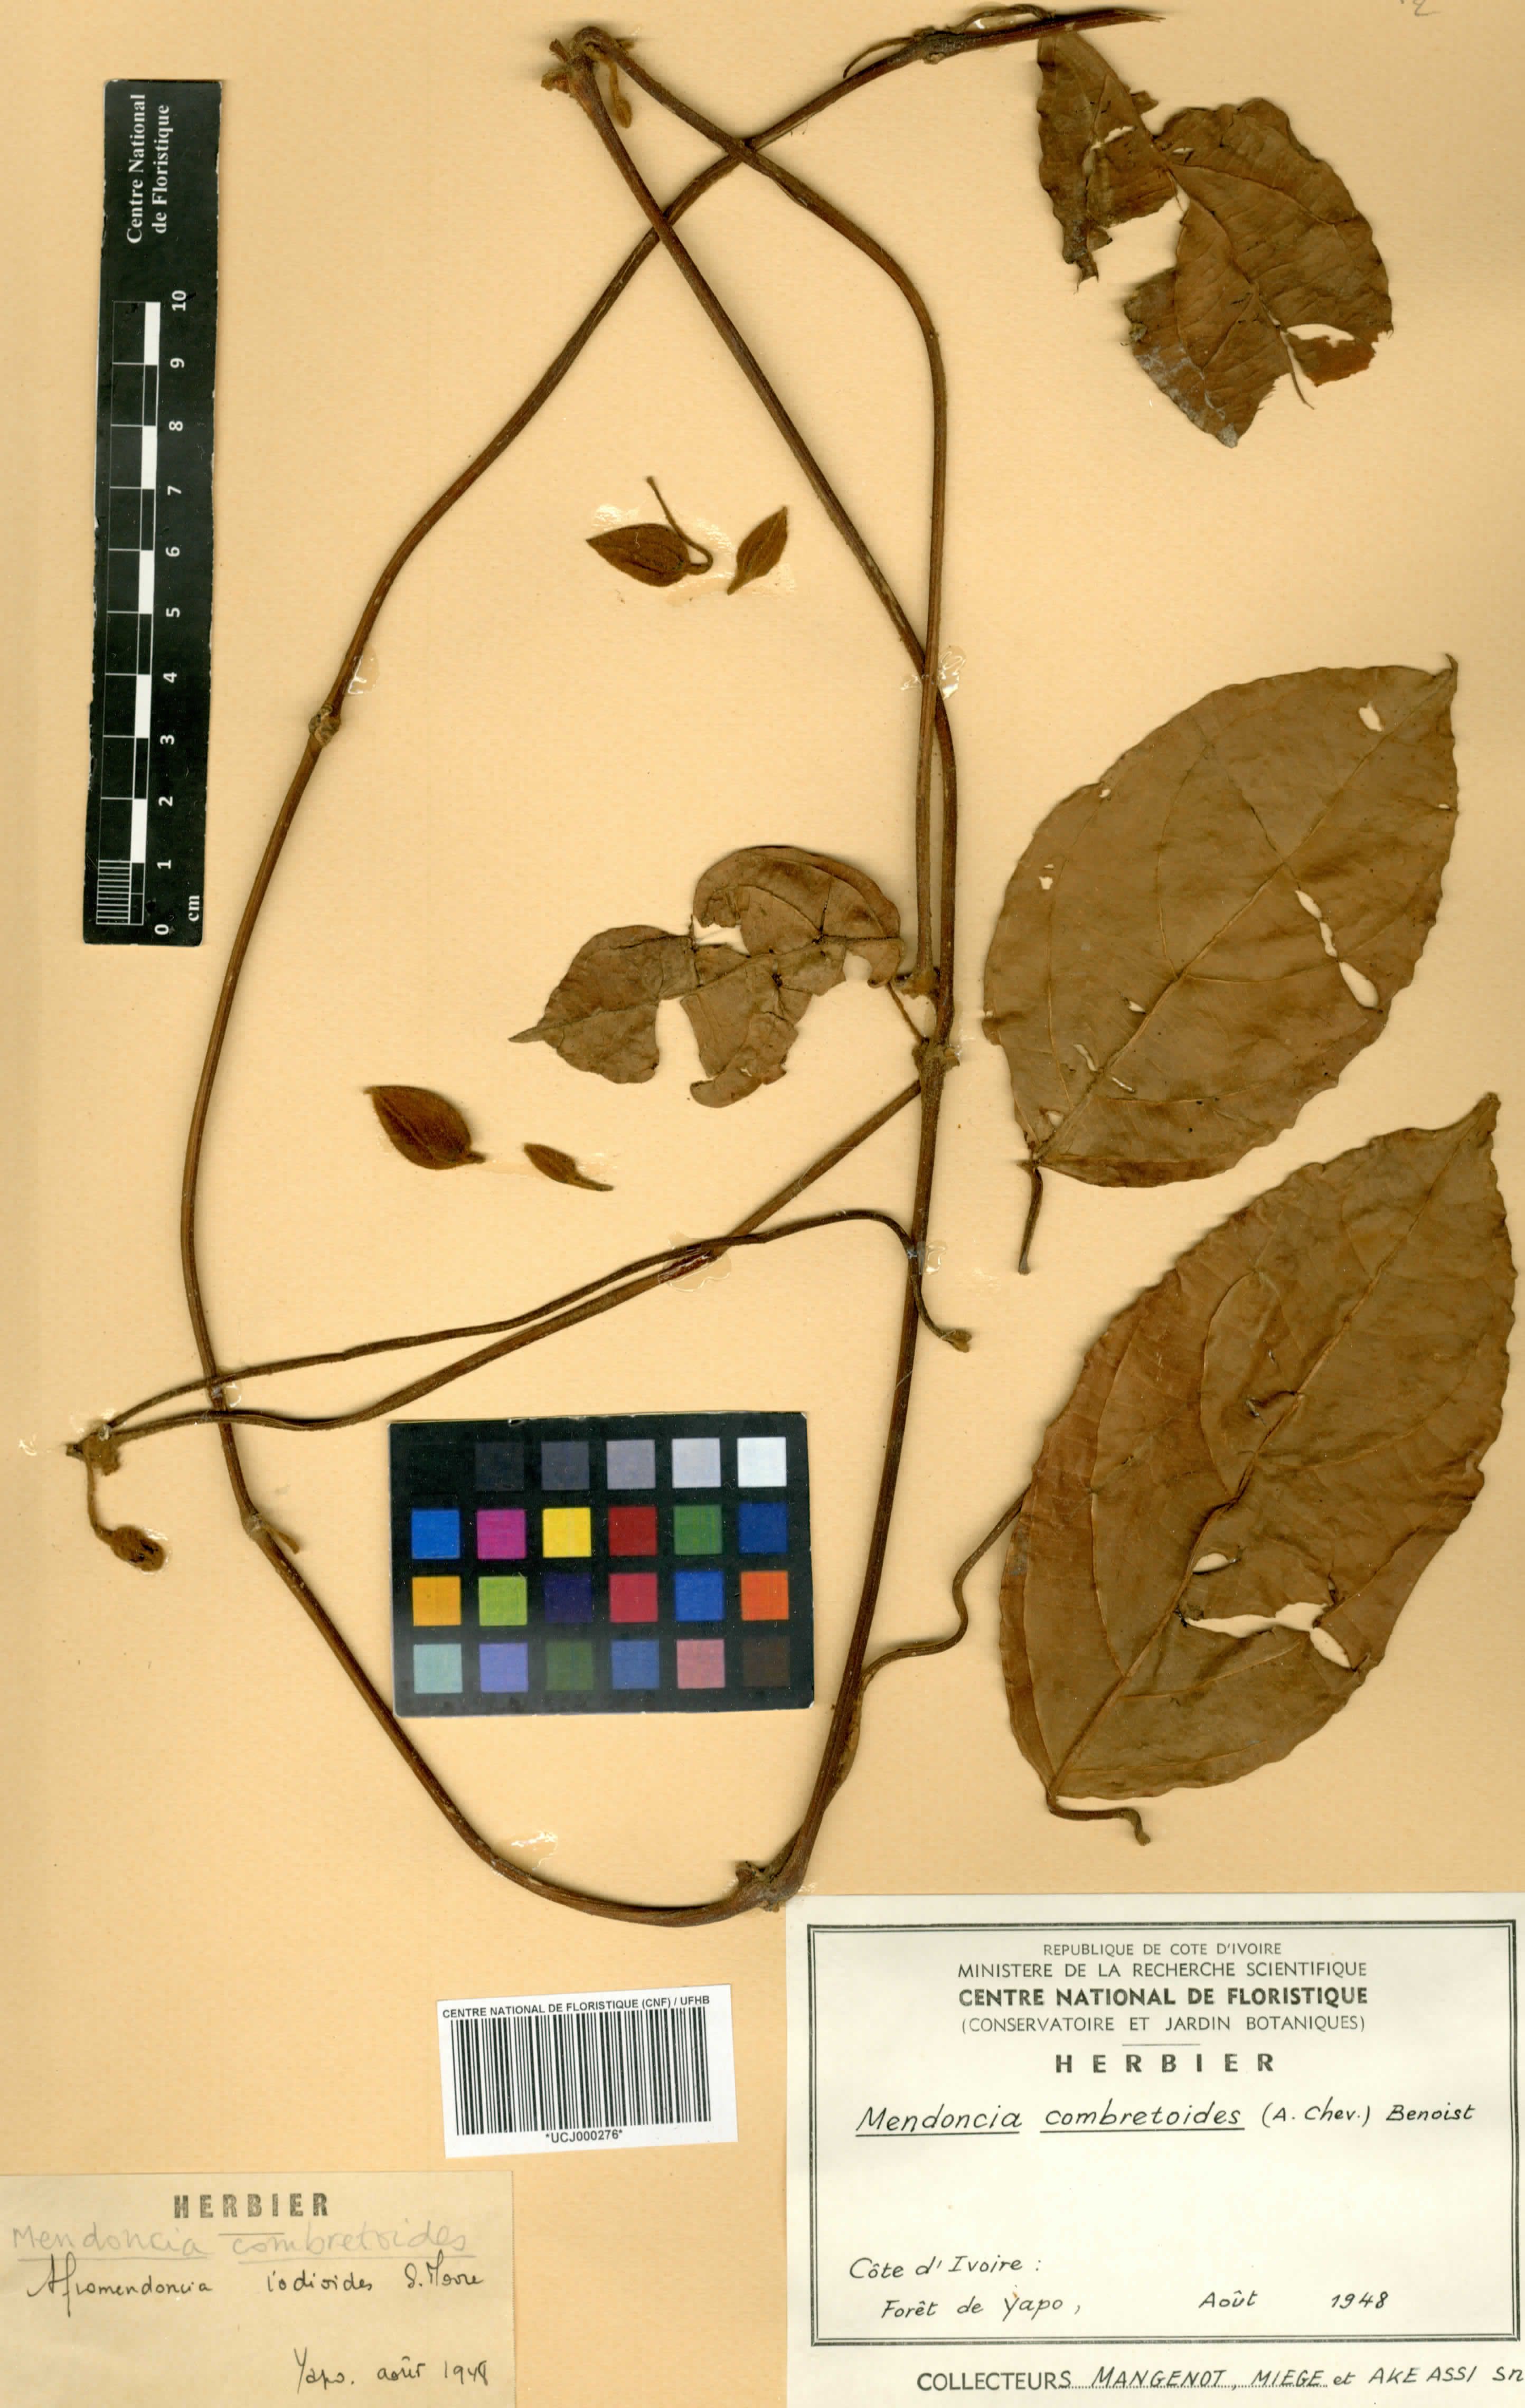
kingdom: Plantae
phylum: Tracheophyta
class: Magnoliopsida
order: Lamiales
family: Acanthaceae
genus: Mendoncia
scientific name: Mendoncia combretoides
